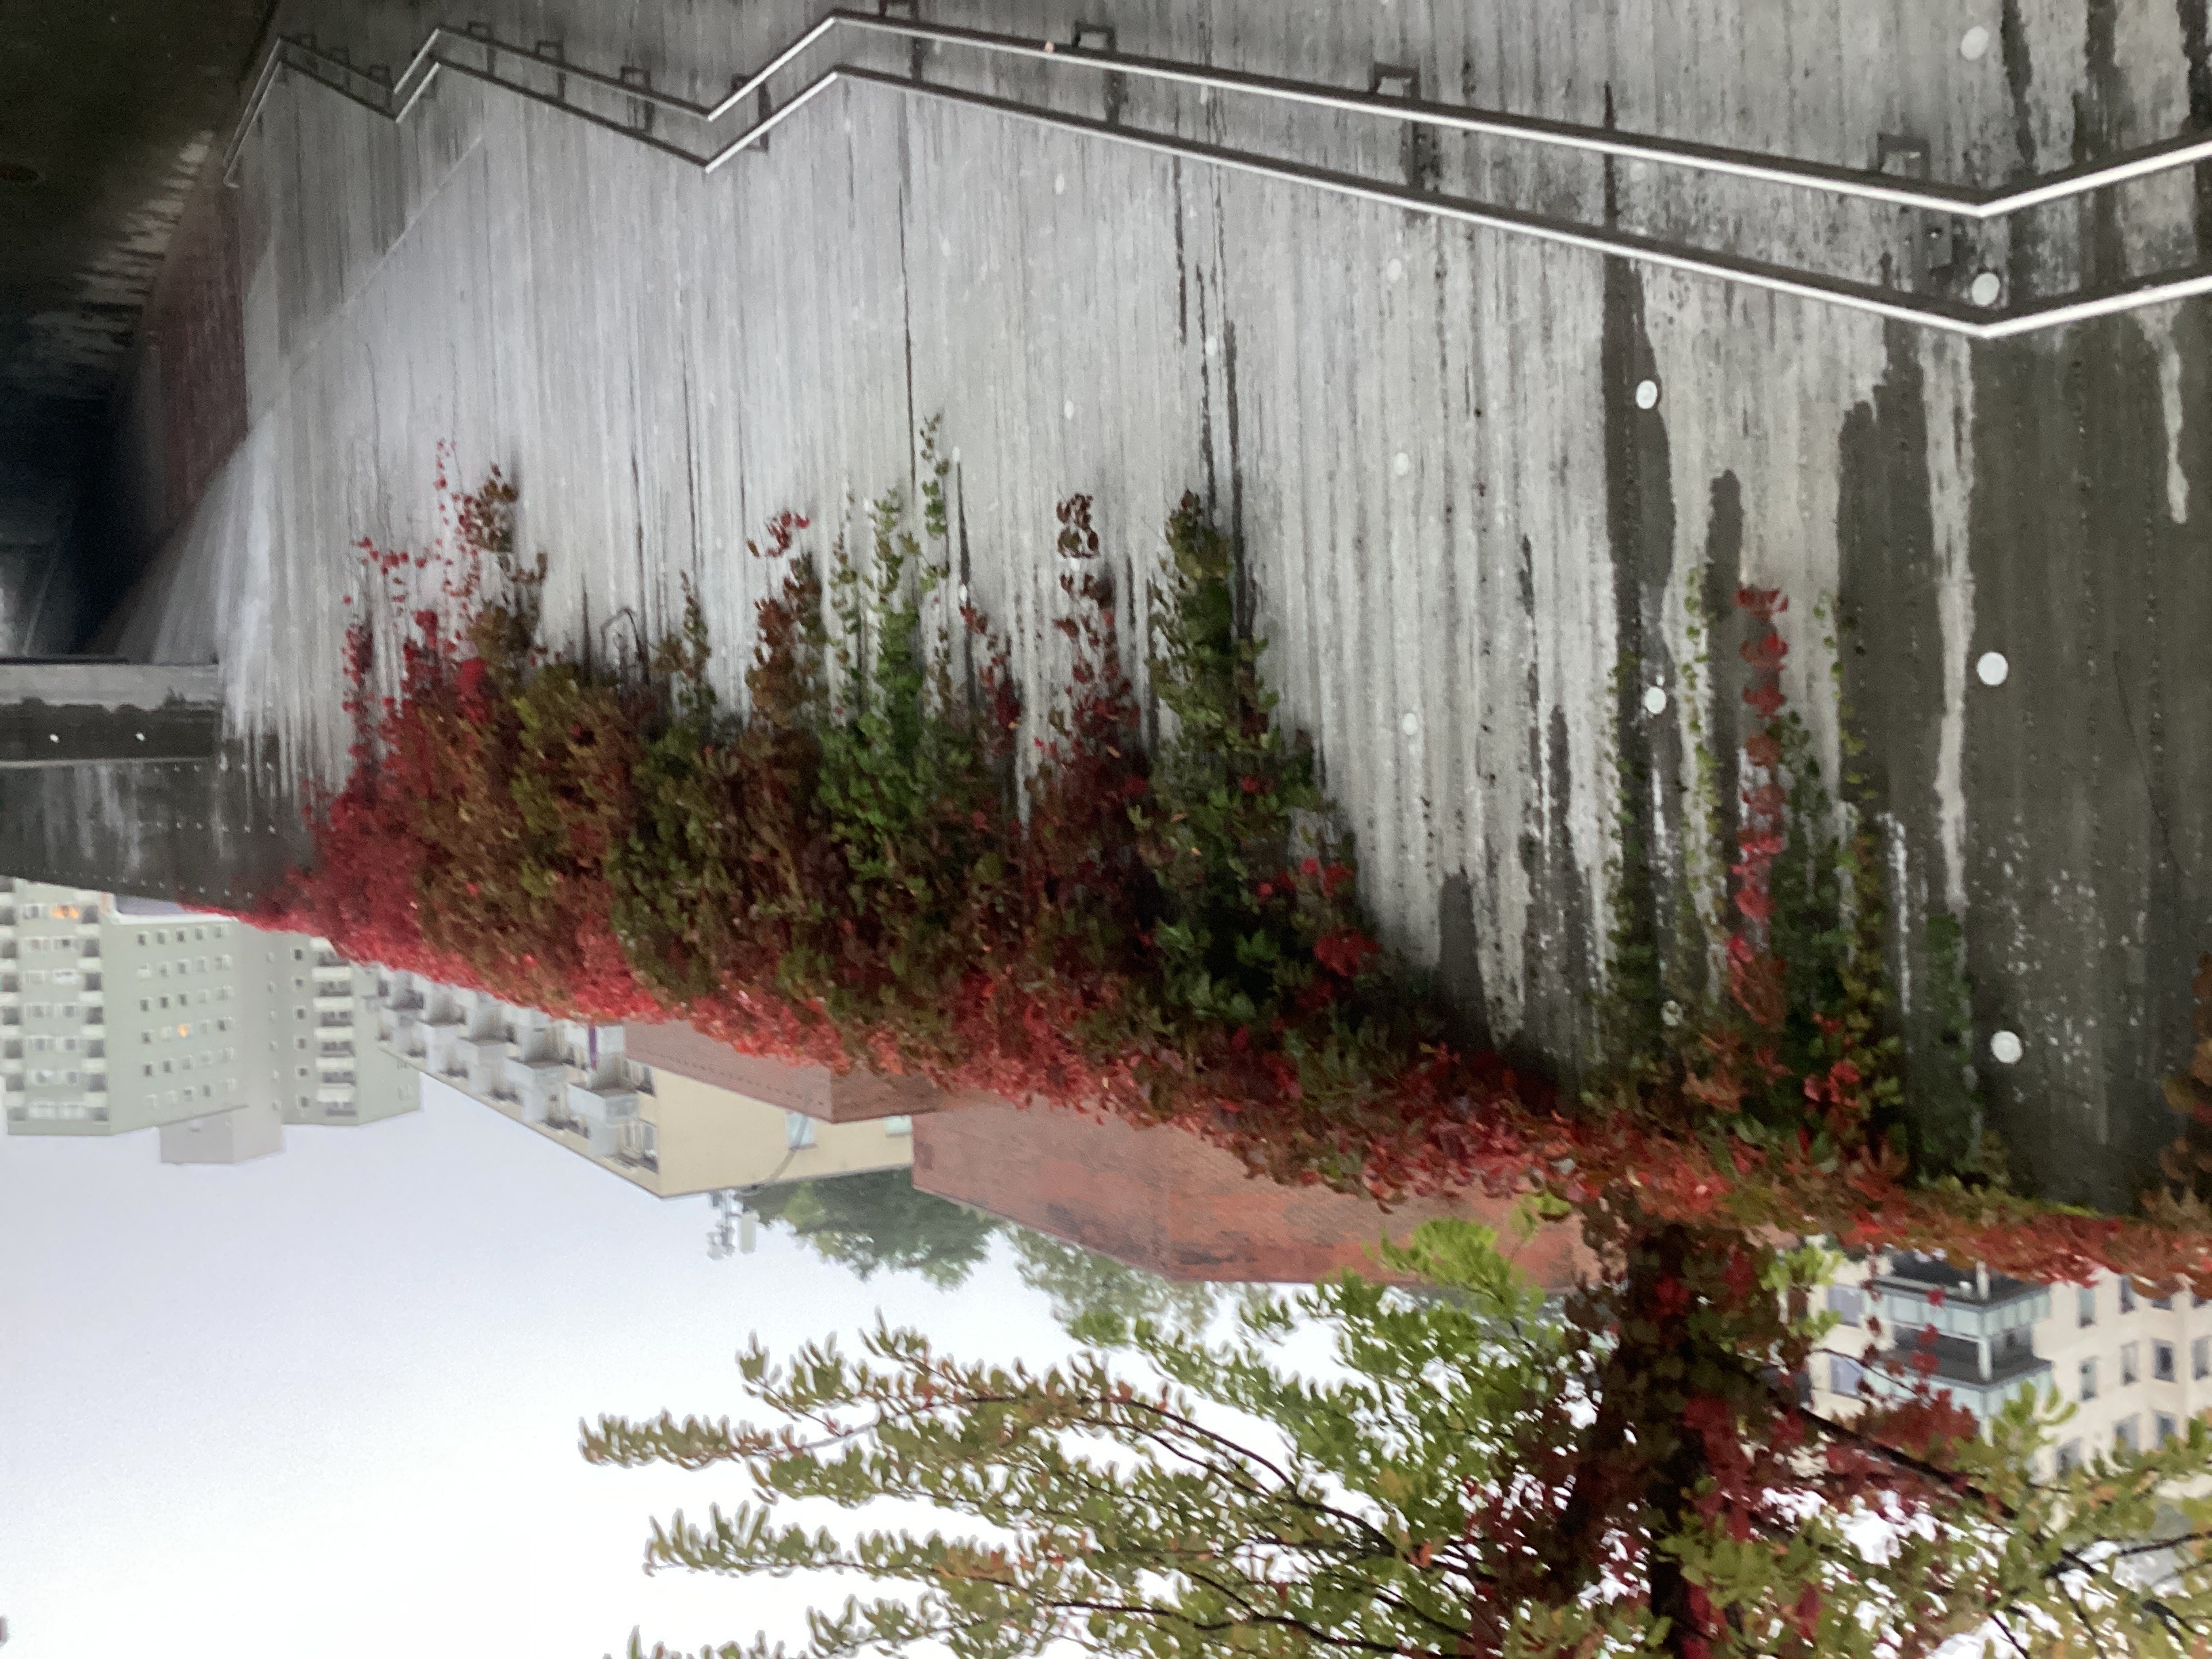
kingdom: Plantae
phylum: Tracheophyta
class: Magnoliopsida
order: Vitales
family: Vitaceae
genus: Parthenocissus
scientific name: Parthenocissus quinquefolia
